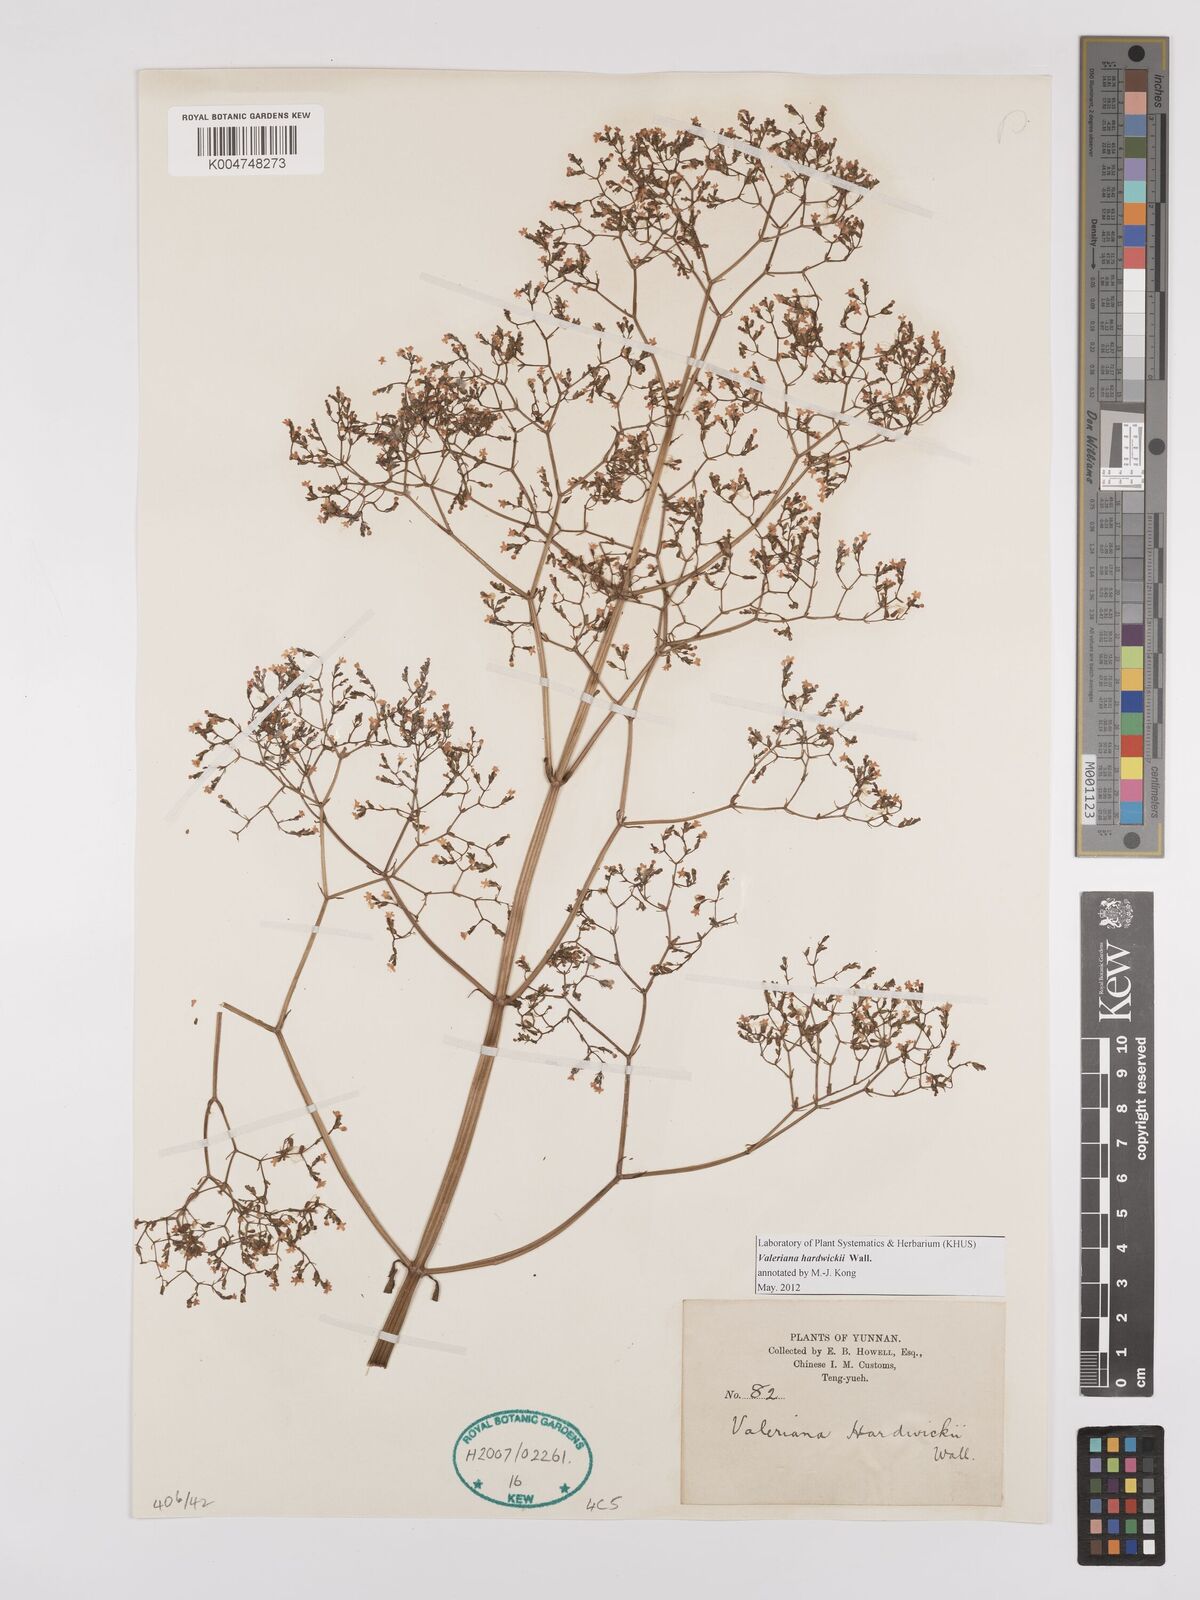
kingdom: Plantae
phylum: Tracheophyta
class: Magnoliopsida
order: Dipsacales
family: Caprifoliaceae
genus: Valeriana
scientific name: Valeriana hardwickei
